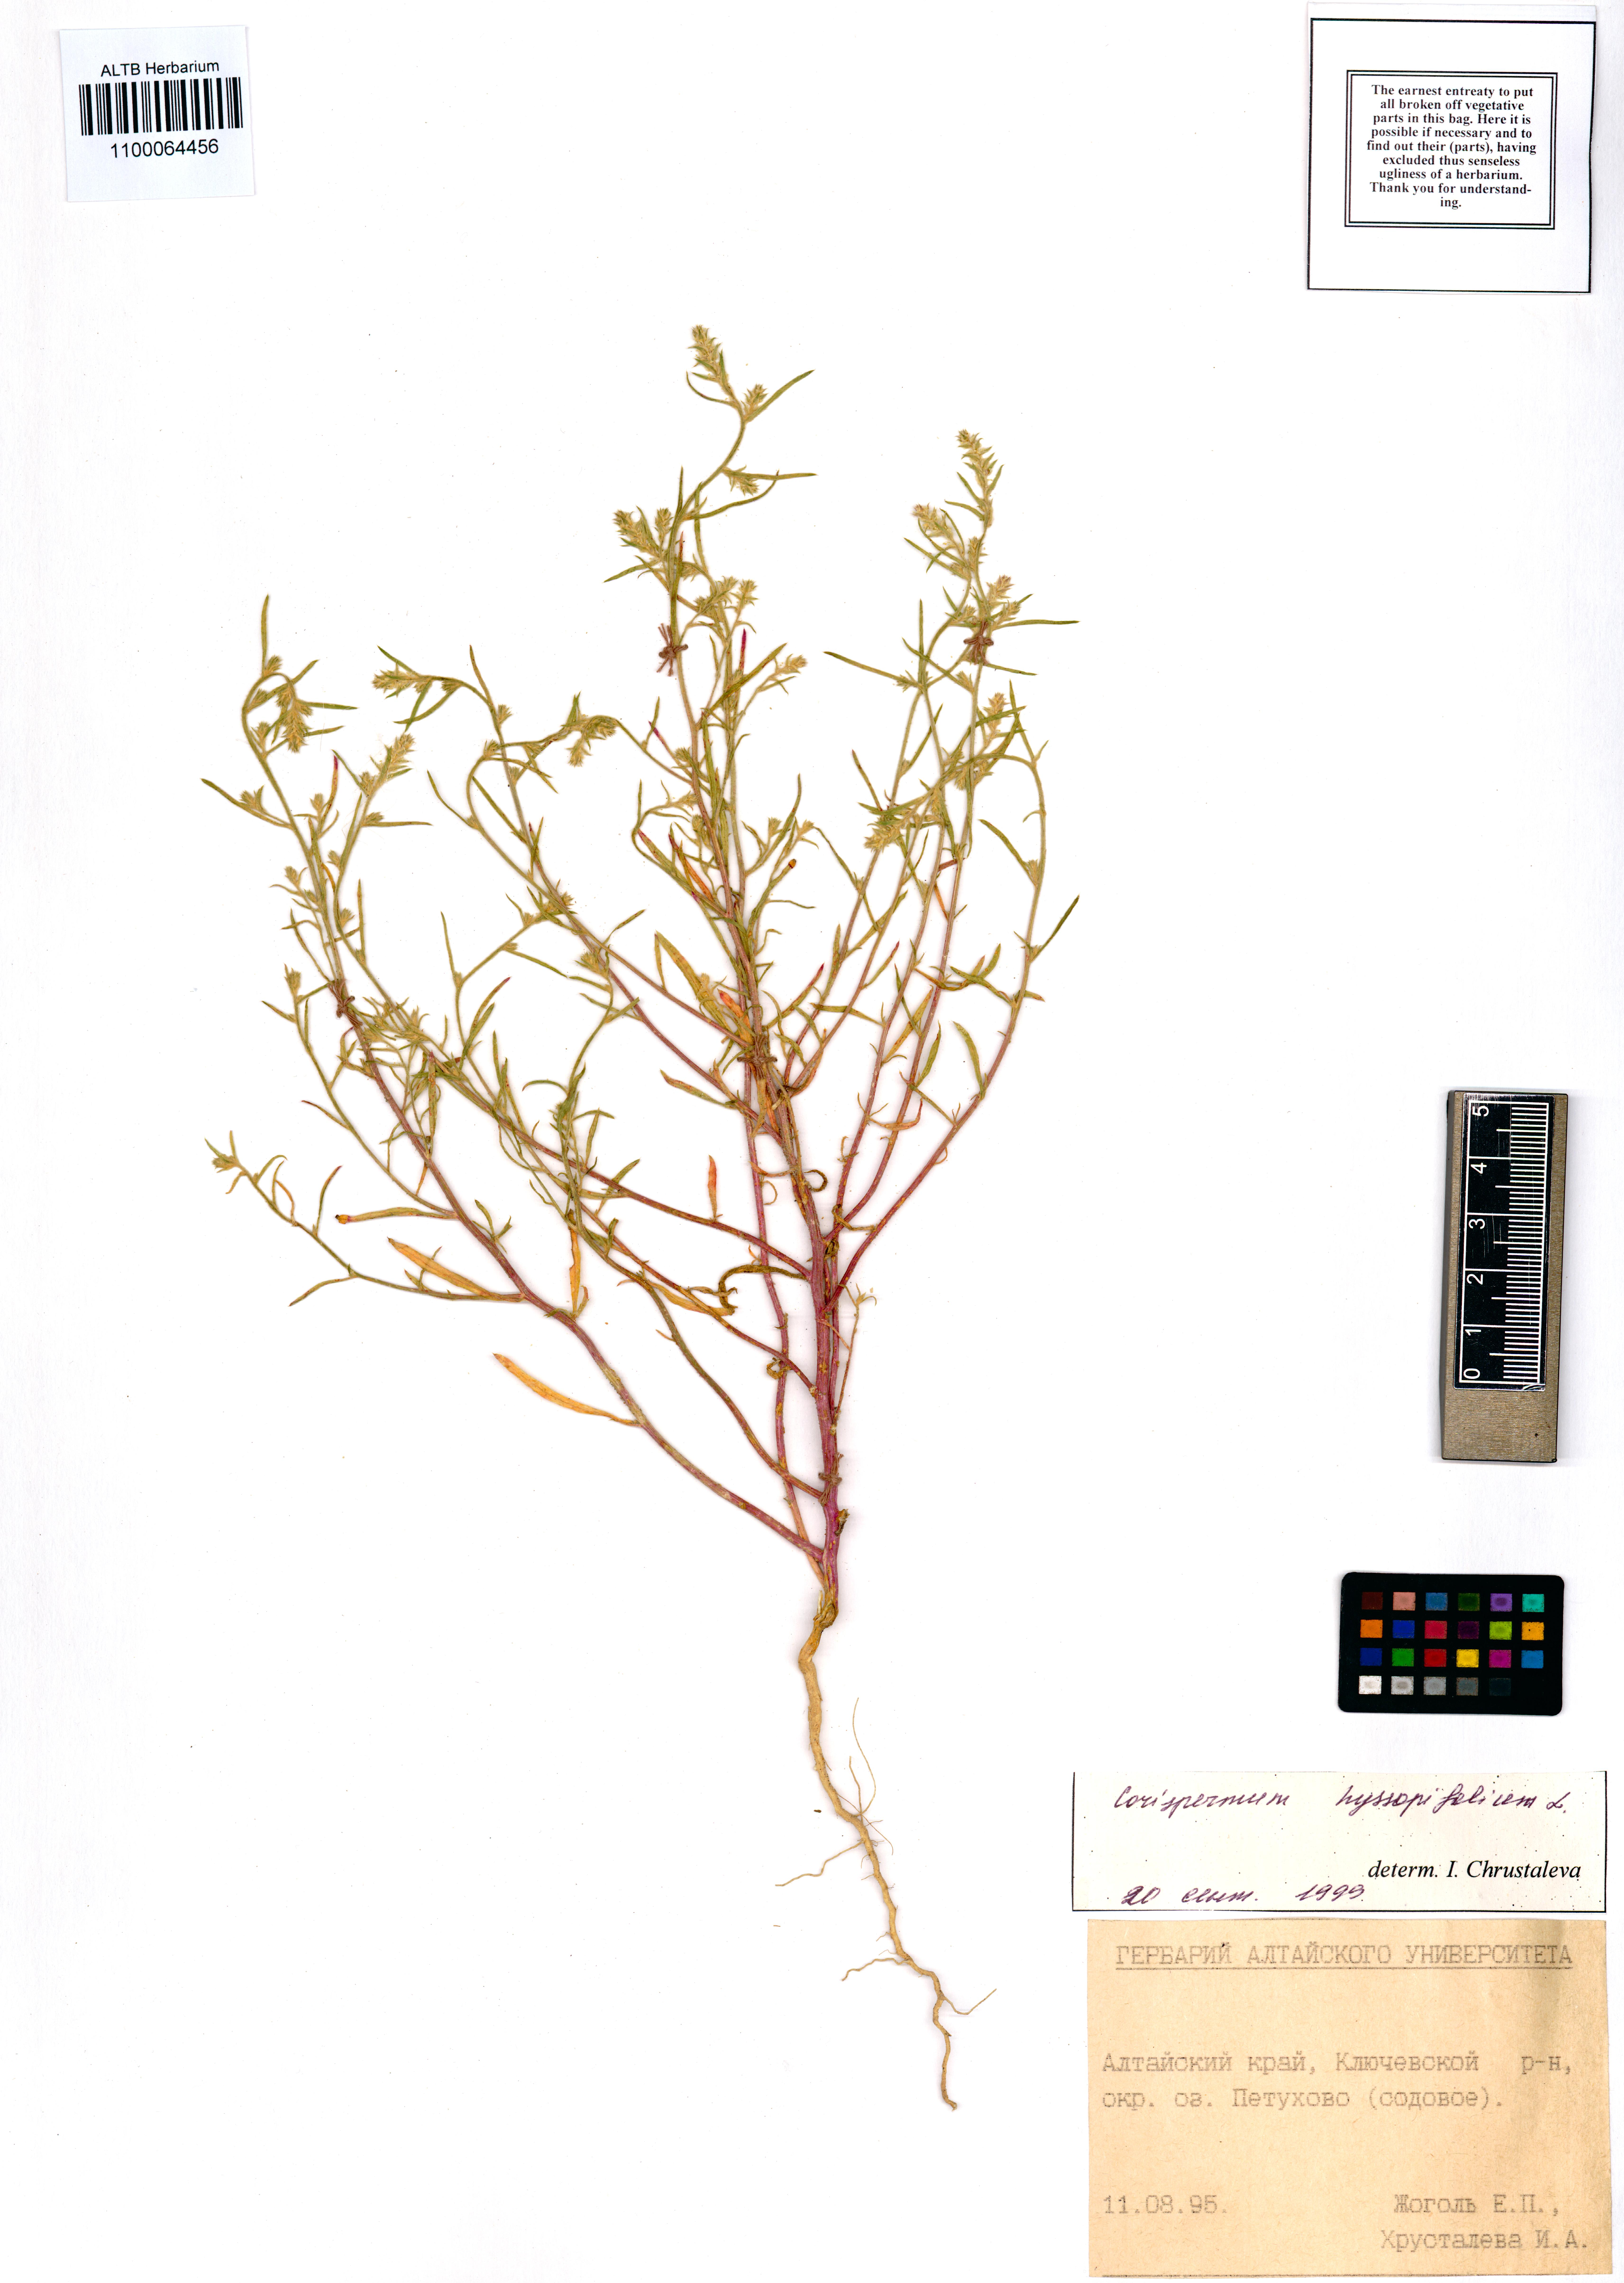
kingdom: Plantae
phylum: Tracheophyta
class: Magnoliopsida
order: Caryophyllales
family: Amaranthaceae
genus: Corispermum
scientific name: Corispermum hyssopifolium
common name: Bugseed
